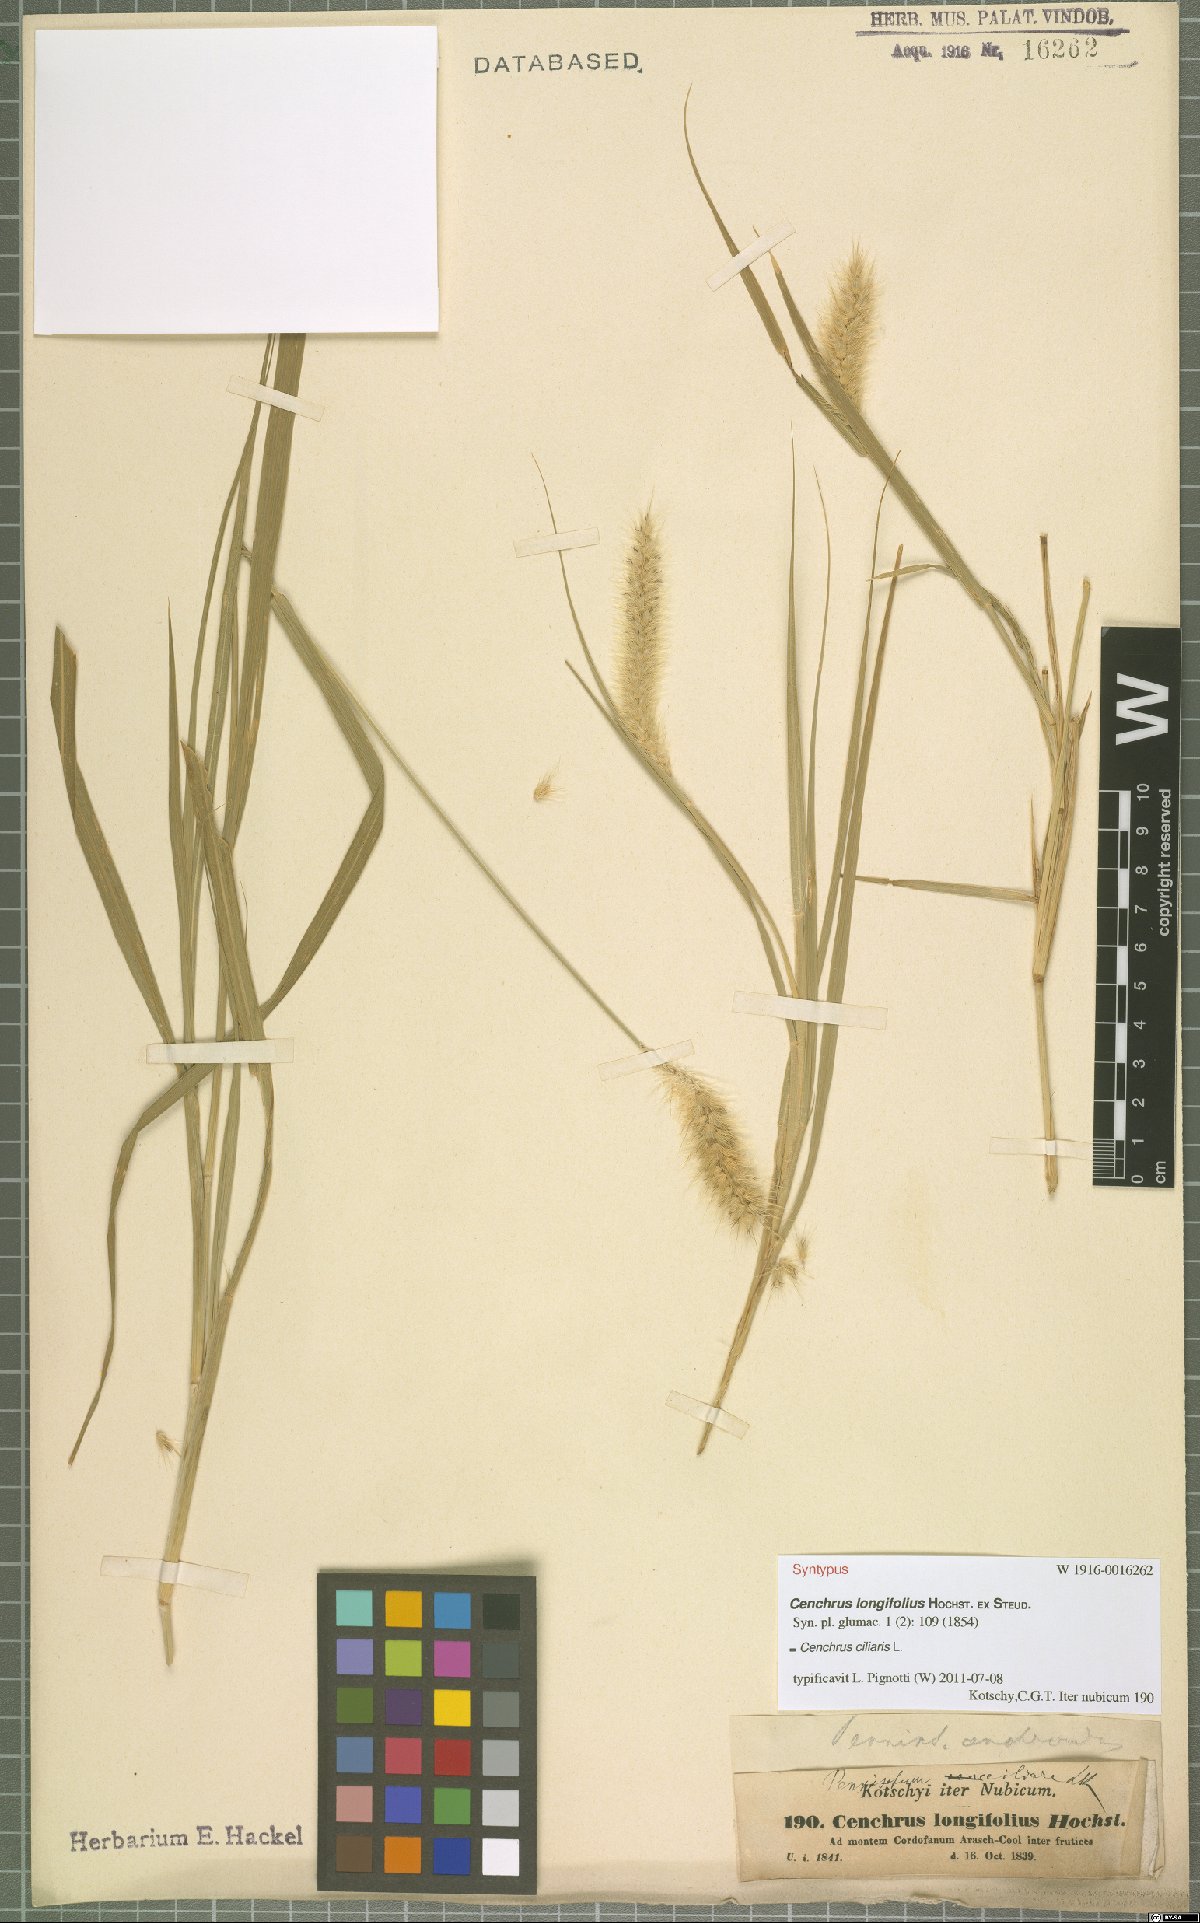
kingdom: Plantae
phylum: Tracheophyta
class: Liliopsida
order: Poales
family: Poaceae
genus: Cenchrus
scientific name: Cenchrus ciliaris
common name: Buffelgrass
